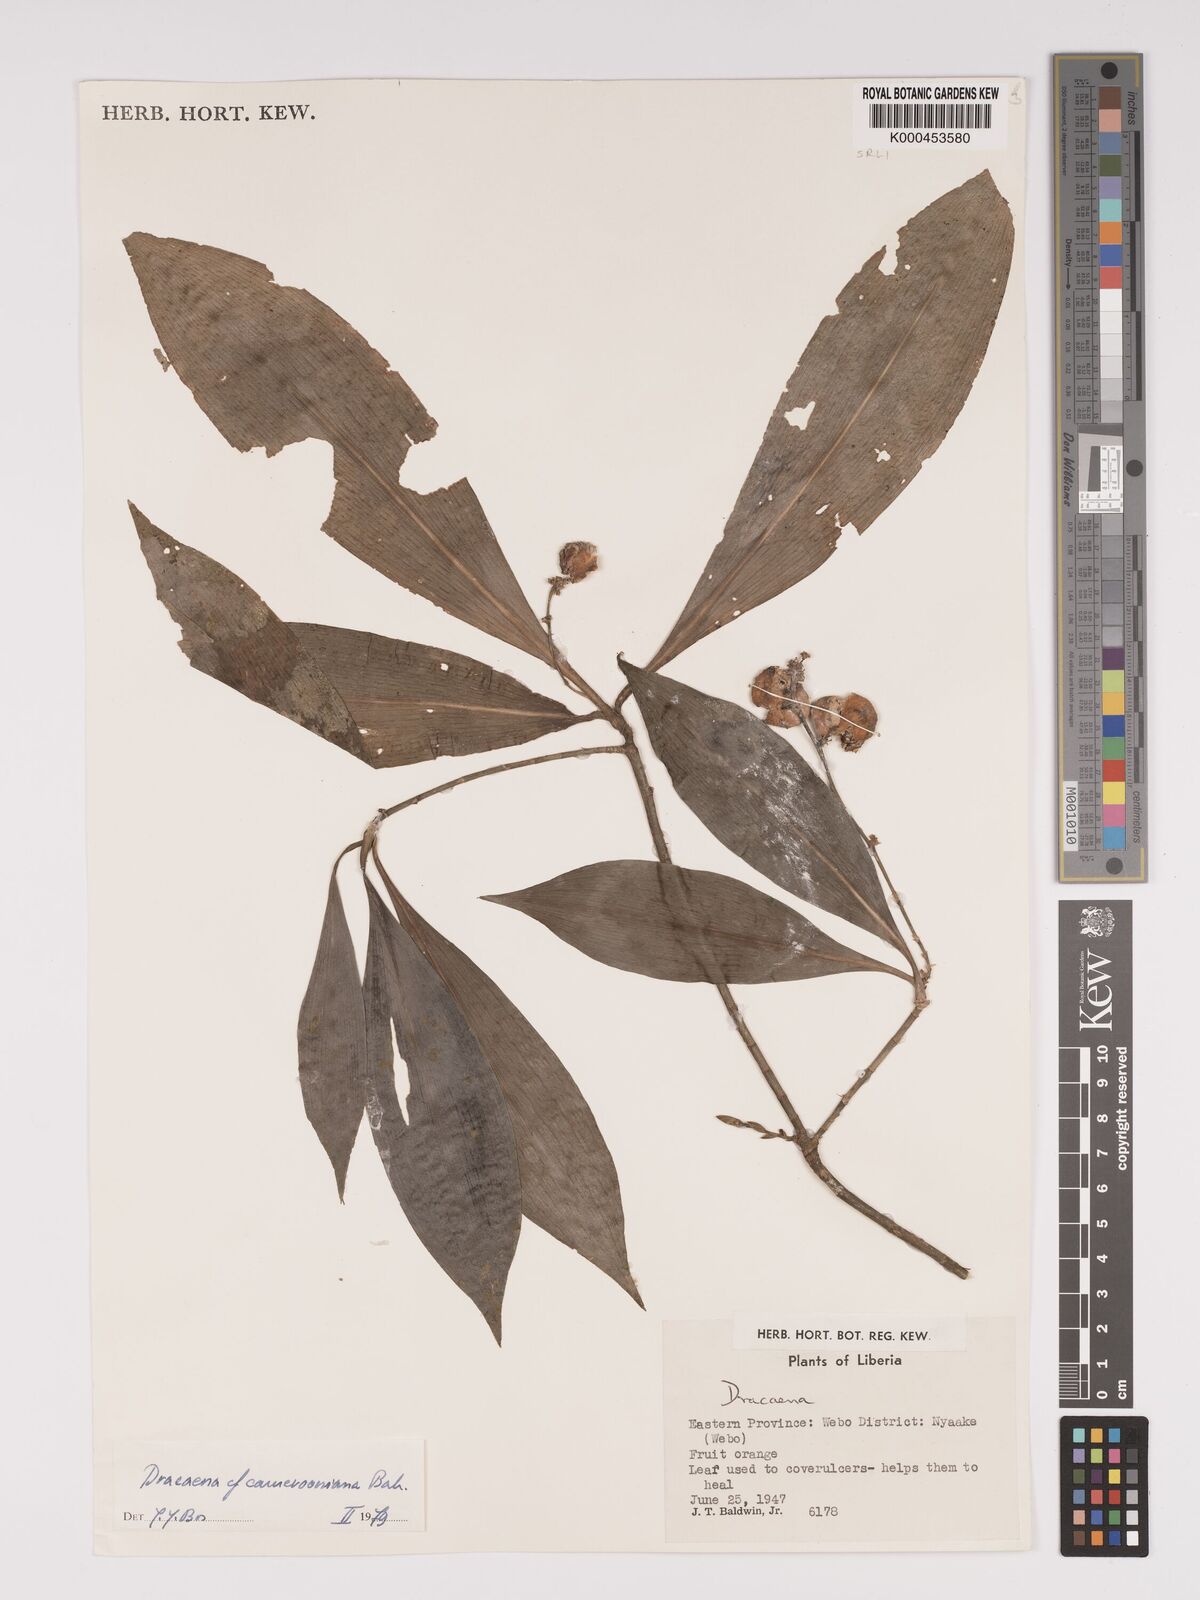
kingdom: Plantae
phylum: Tracheophyta
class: Liliopsida
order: Asparagales
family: Asparagaceae
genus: Dracaena
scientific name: Dracaena camerooniana
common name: Dragon tree
